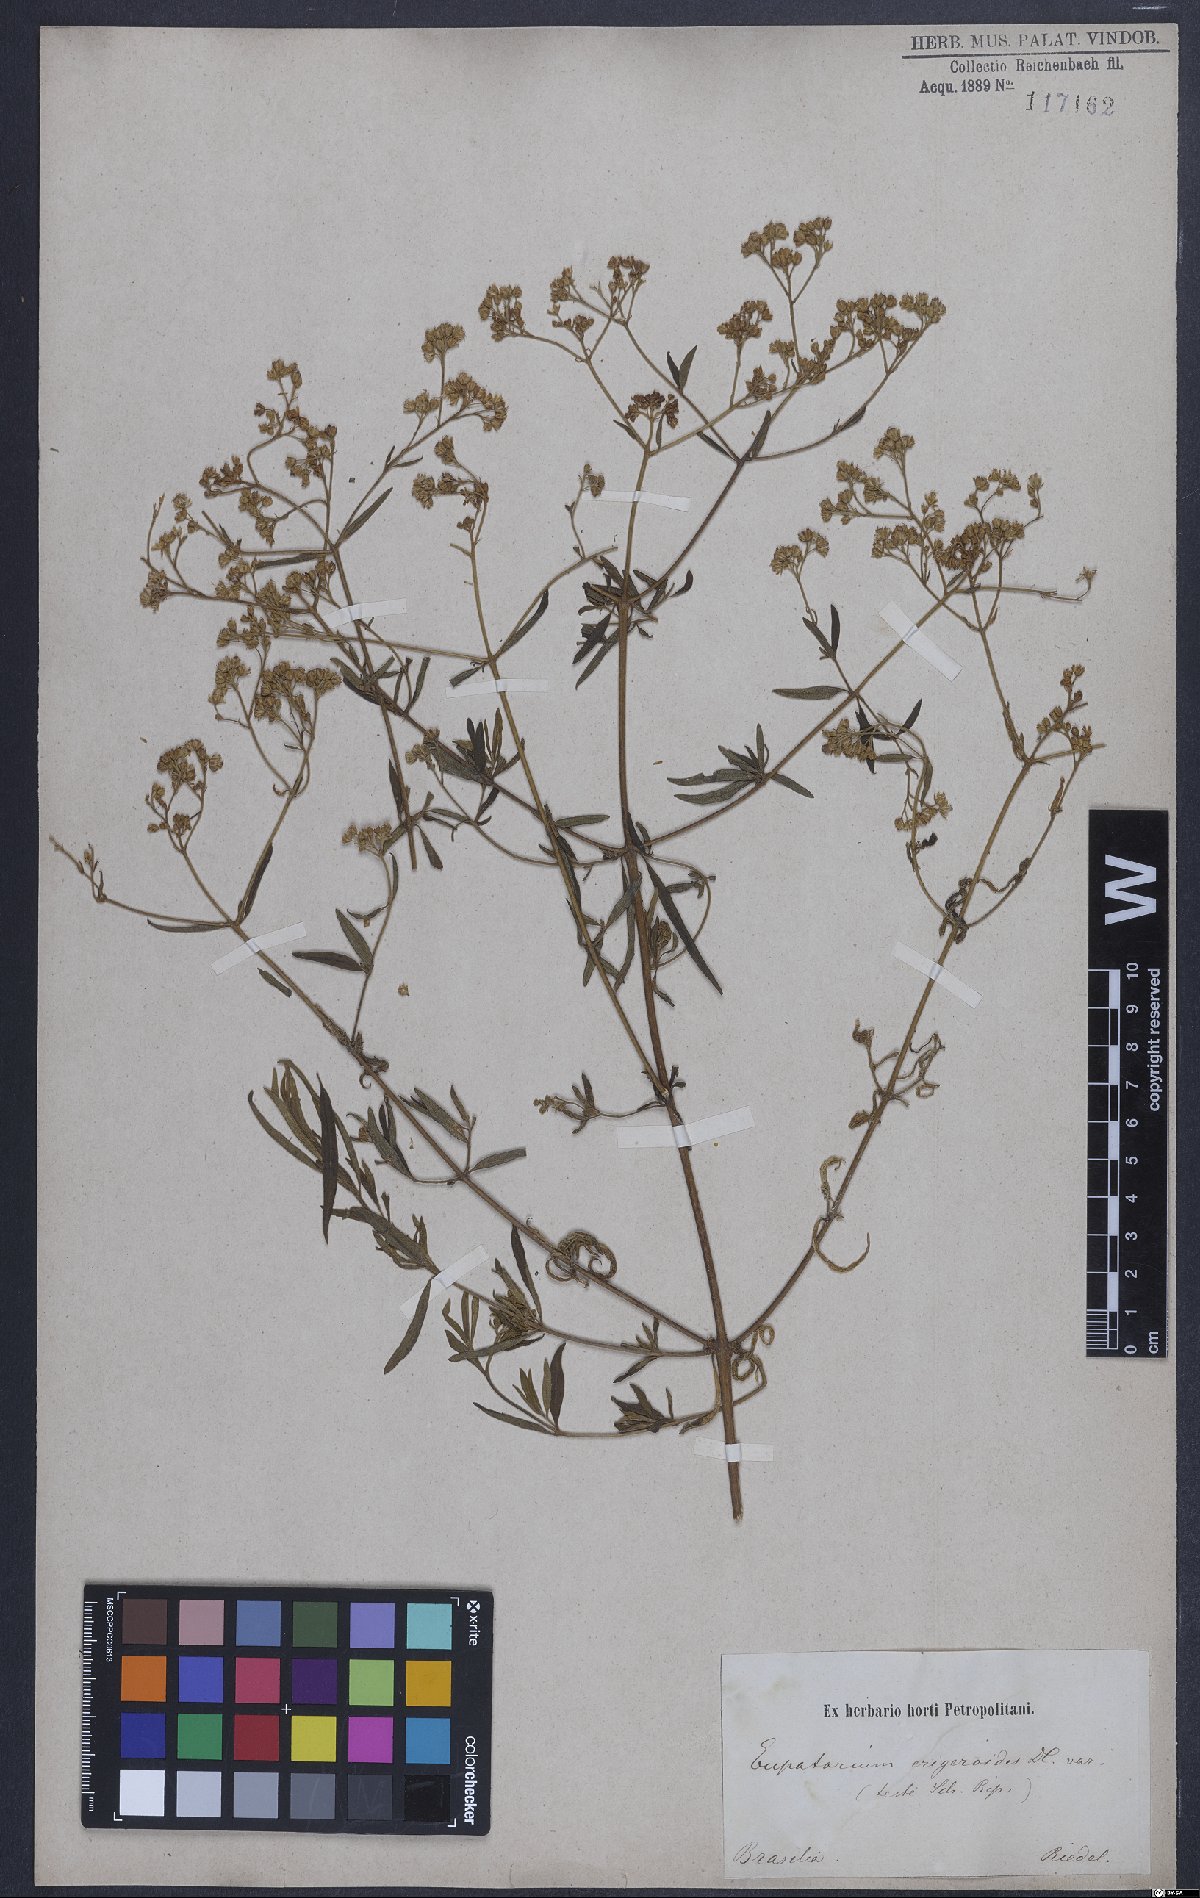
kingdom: Plantae
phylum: Tracheophyta
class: Magnoliopsida
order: Asterales
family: Asteraceae
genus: Hatschbachiella
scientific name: Hatschbachiella tweedieana
